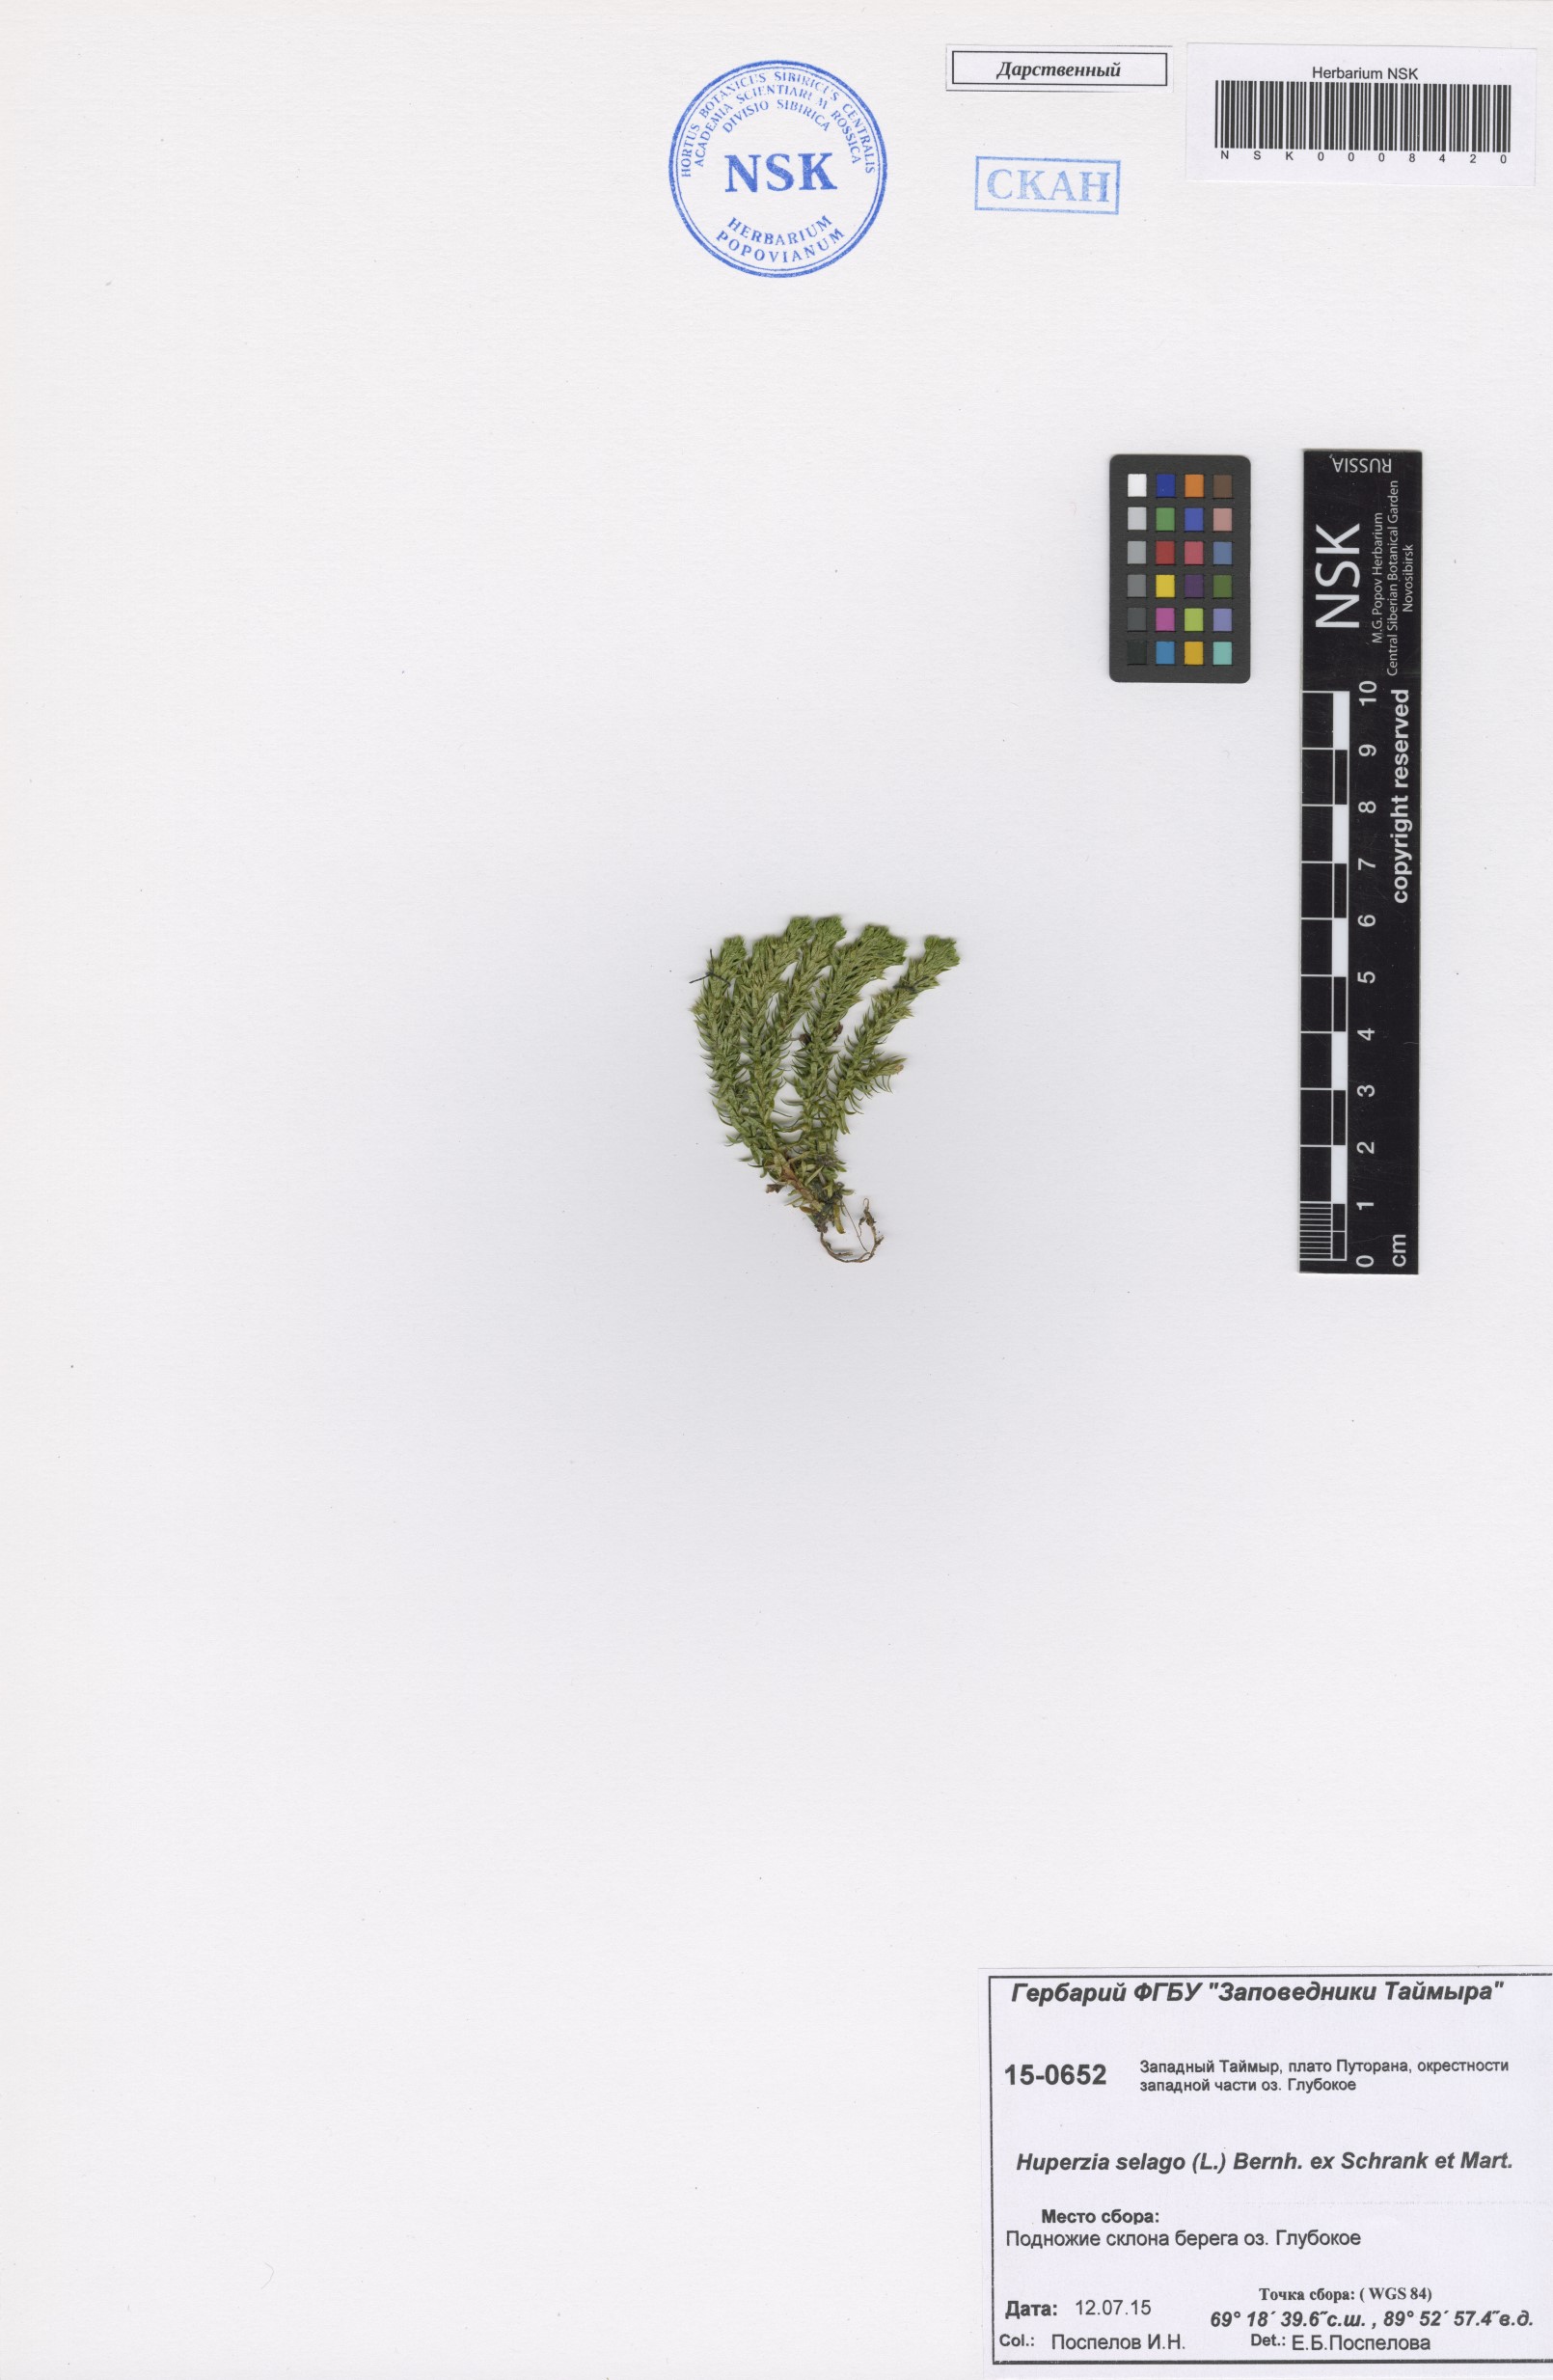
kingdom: Plantae
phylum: Tracheophyta
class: Lycopodiopsida
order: Lycopodiales
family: Lycopodiaceae
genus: Huperzia
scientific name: Huperzia selago
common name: Northern firmoss
